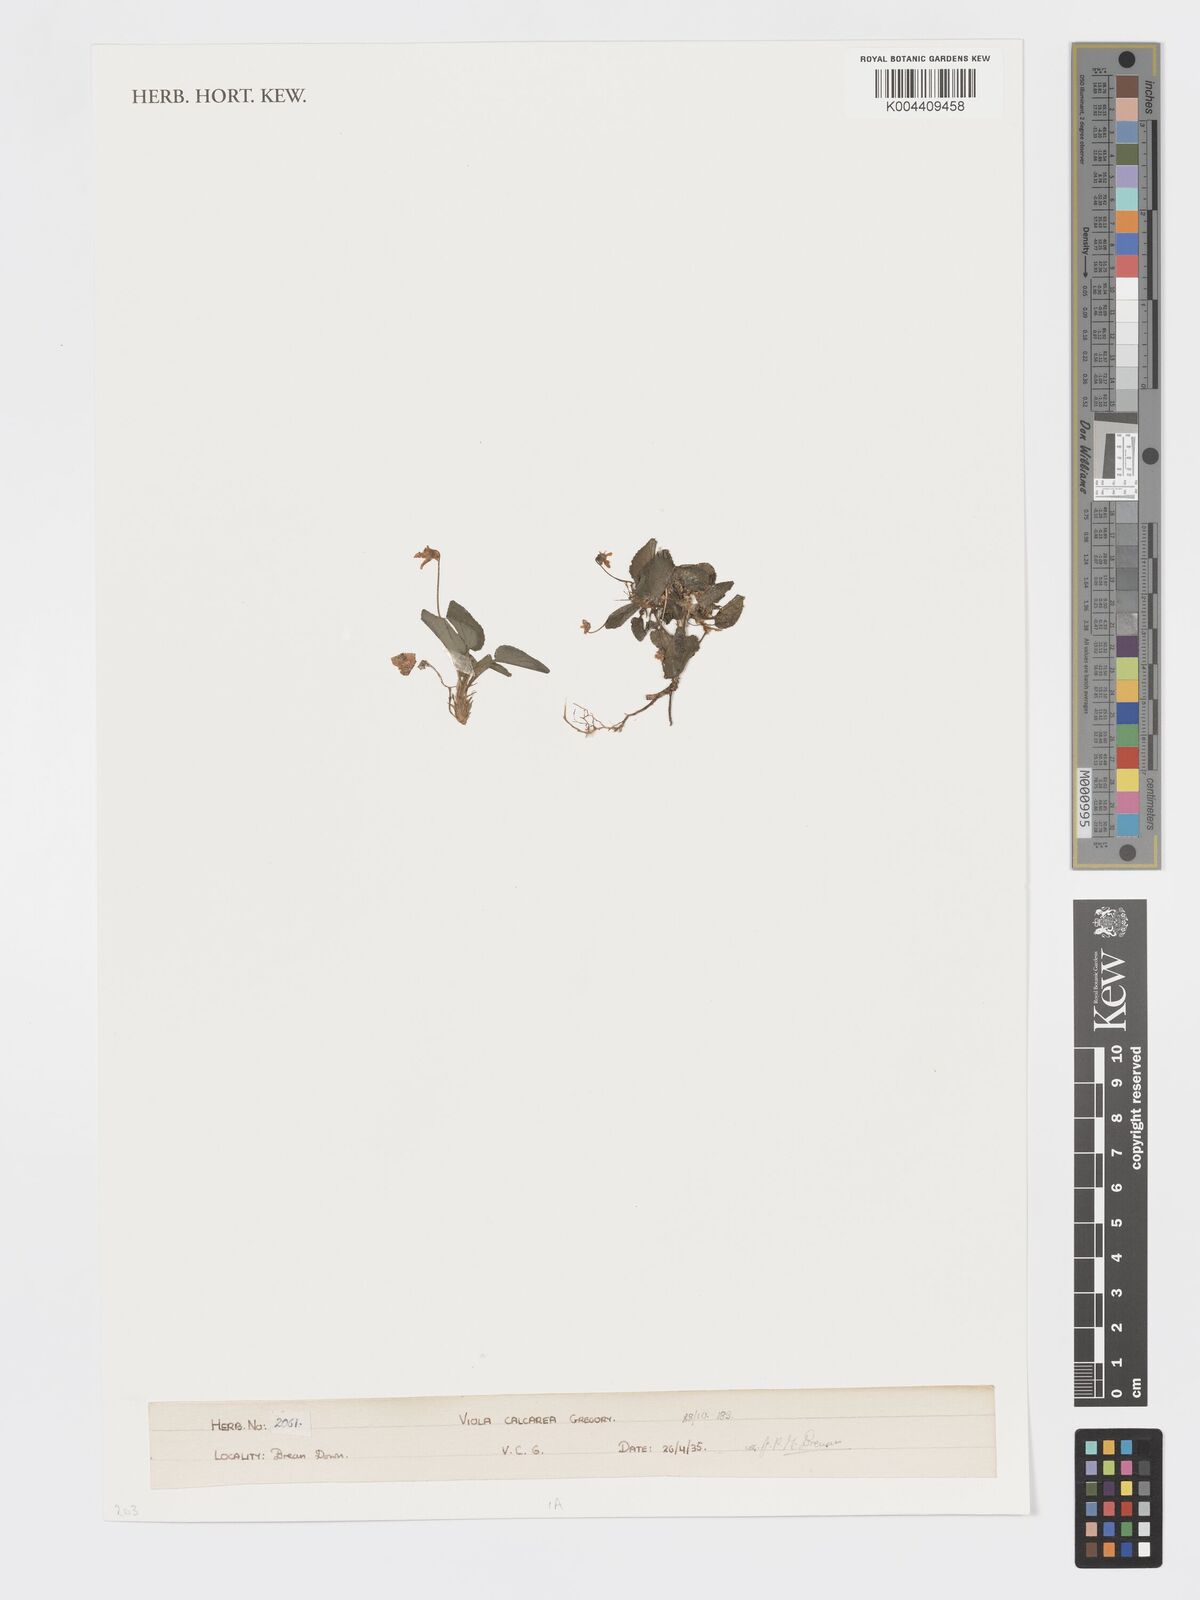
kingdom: Plantae
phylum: Tracheophyta
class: Magnoliopsida
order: Malpighiales
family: Violaceae
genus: Viola
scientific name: Viola
